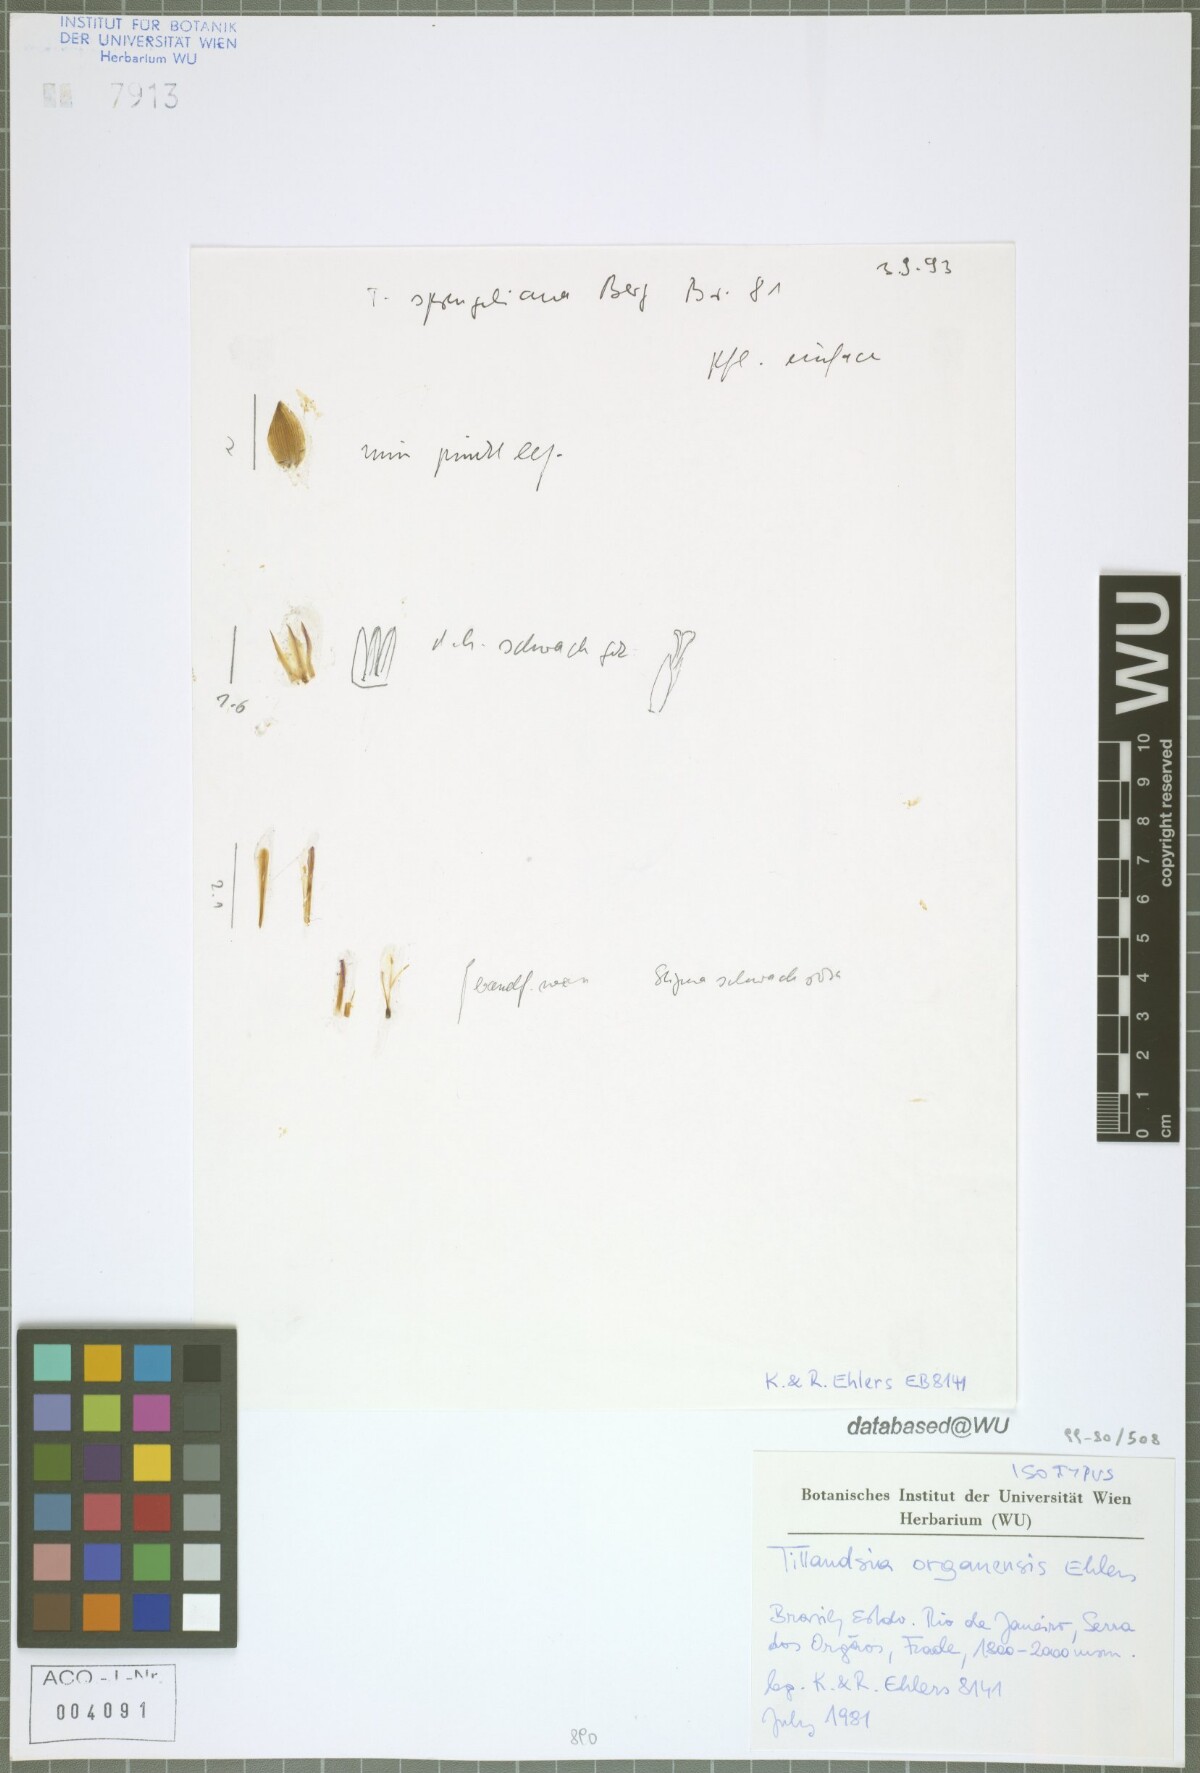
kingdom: Plantae
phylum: Tracheophyta
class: Liliopsida
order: Poales
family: Bromeliaceae
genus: Tillandsia
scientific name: Tillandsia organensis
